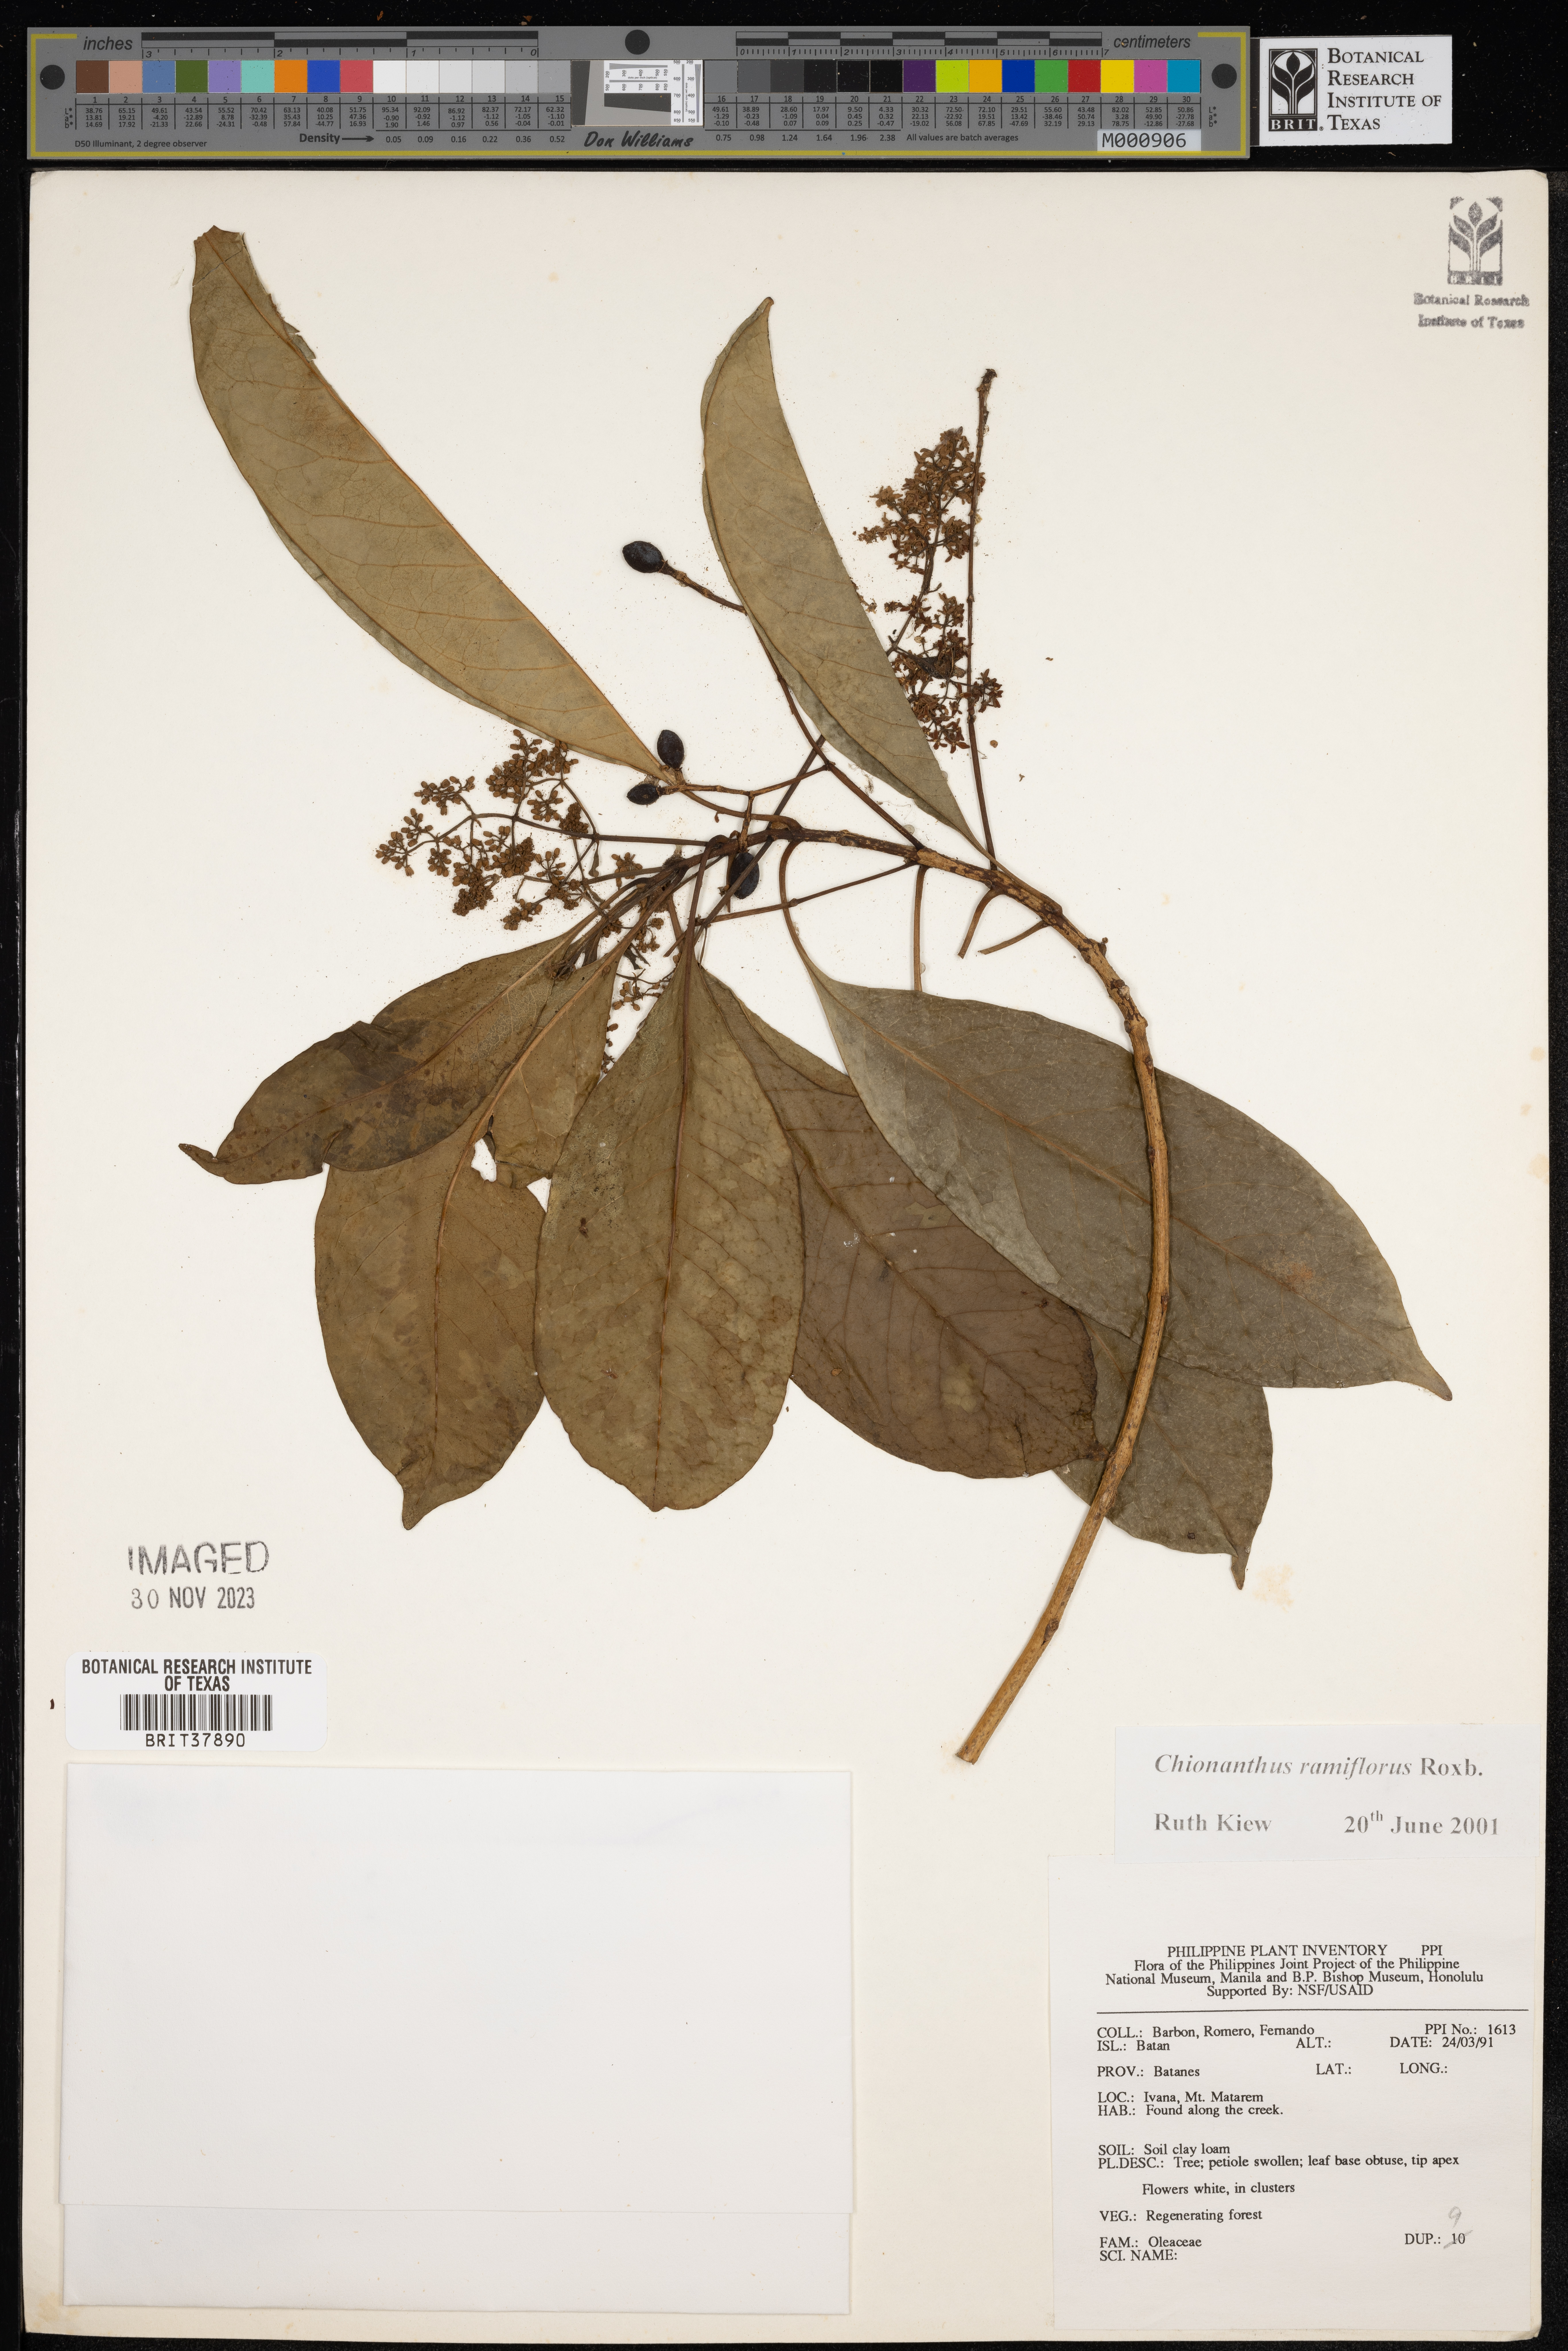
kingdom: Plantae
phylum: Tracheophyta
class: Magnoliopsida
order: Lamiales
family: Oleaceae
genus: Chionanthus
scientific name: Chionanthus ramiflorus
